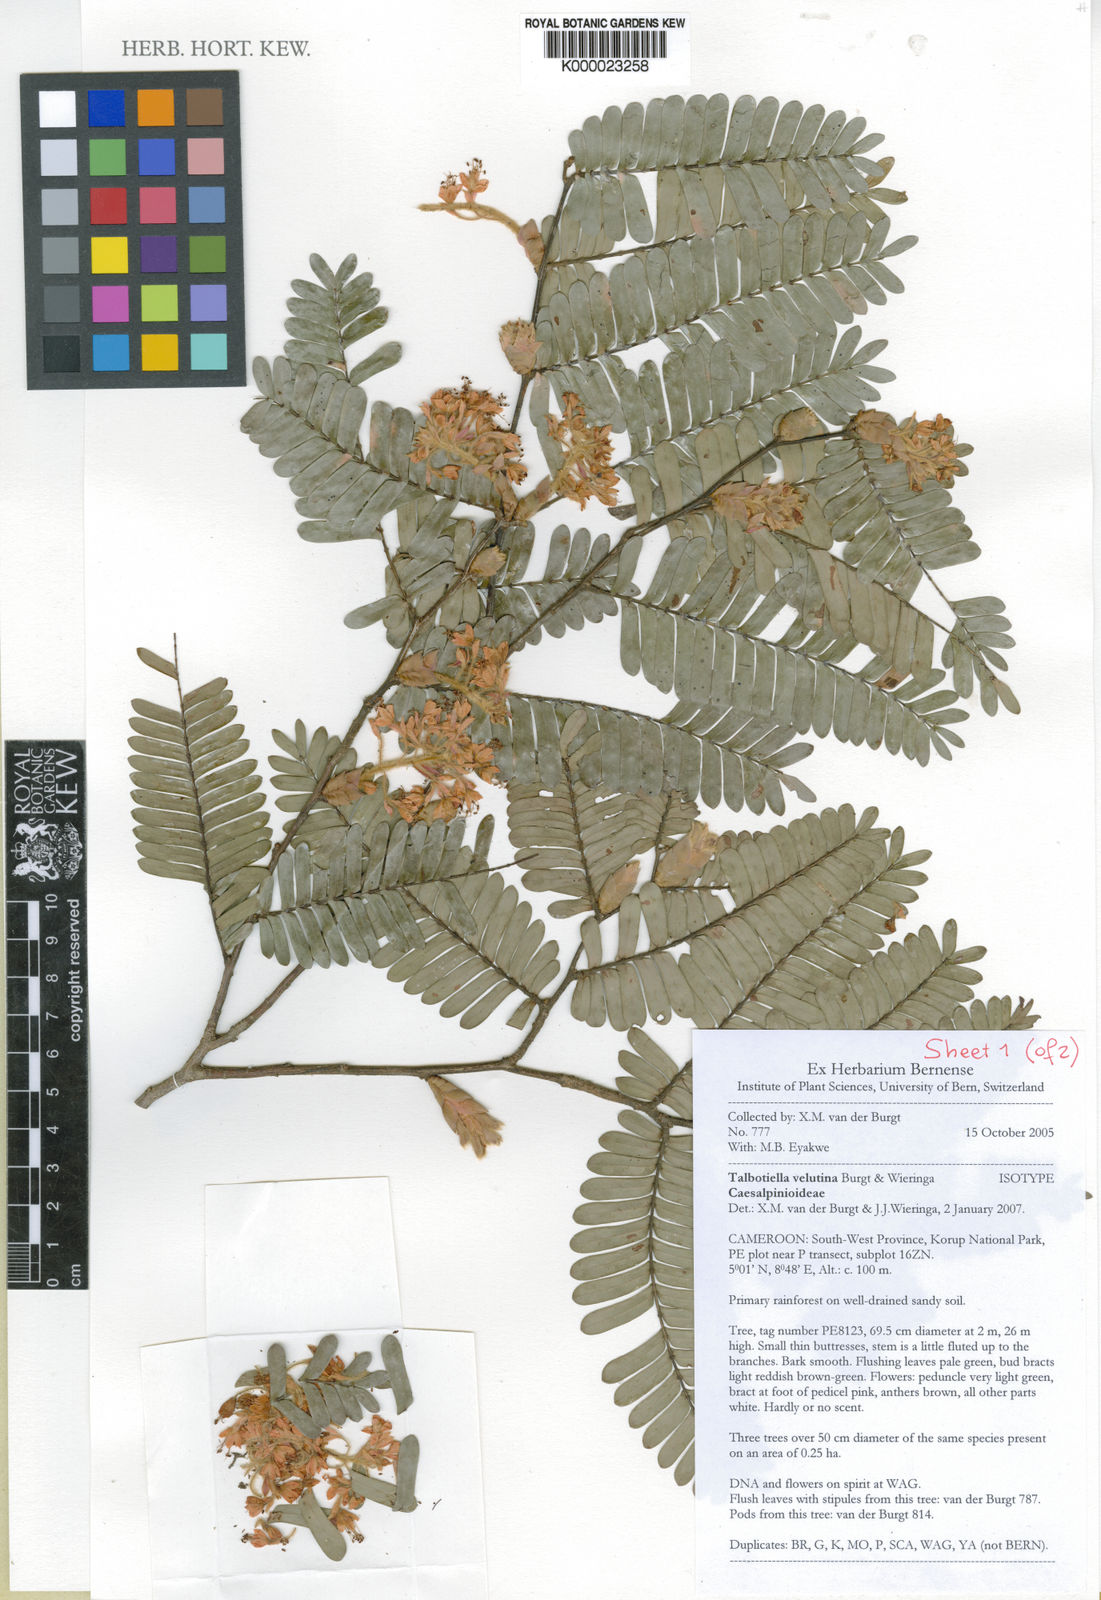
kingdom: Plantae
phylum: Tracheophyta
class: Magnoliopsida
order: Fabales
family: Fabaceae
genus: Talbotiella
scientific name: Talbotiella velutina
